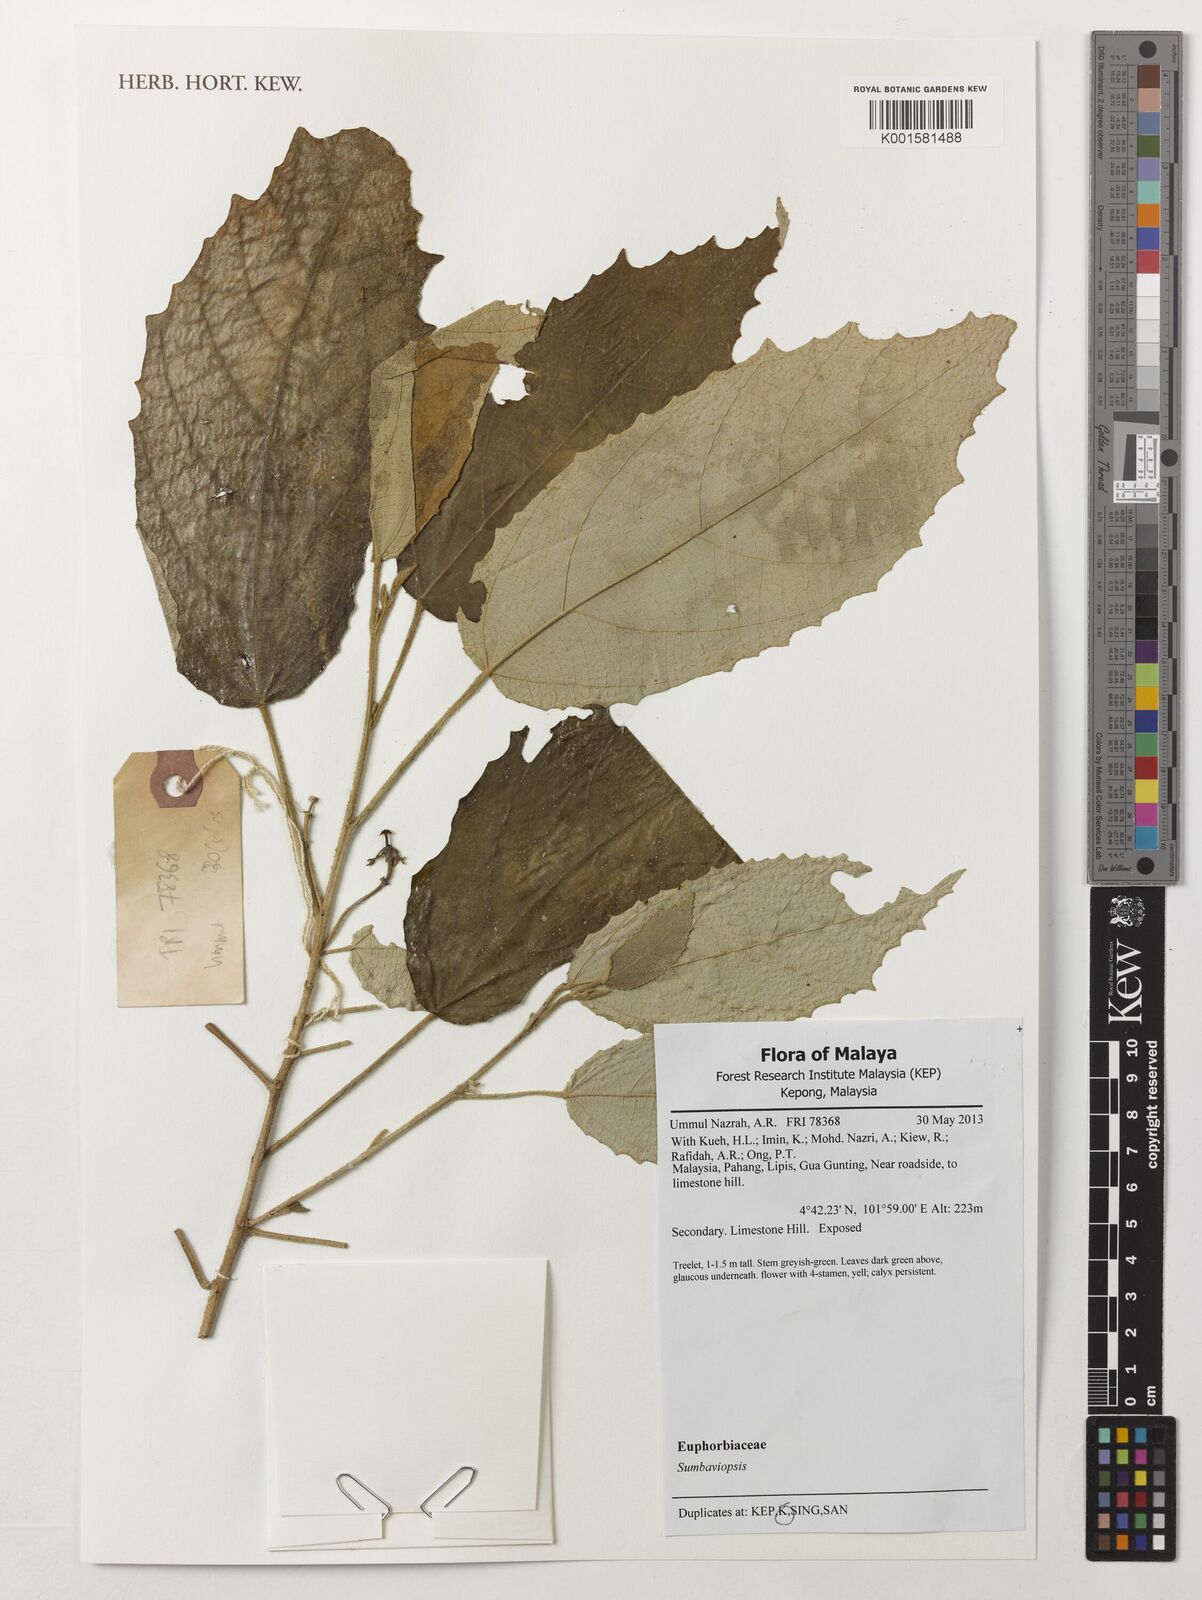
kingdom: Plantae
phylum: Tracheophyta
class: Magnoliopsida
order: Malpighiales
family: Euphorbiaceae
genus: Sumbaviopsis
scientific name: Sumbaviopsis
